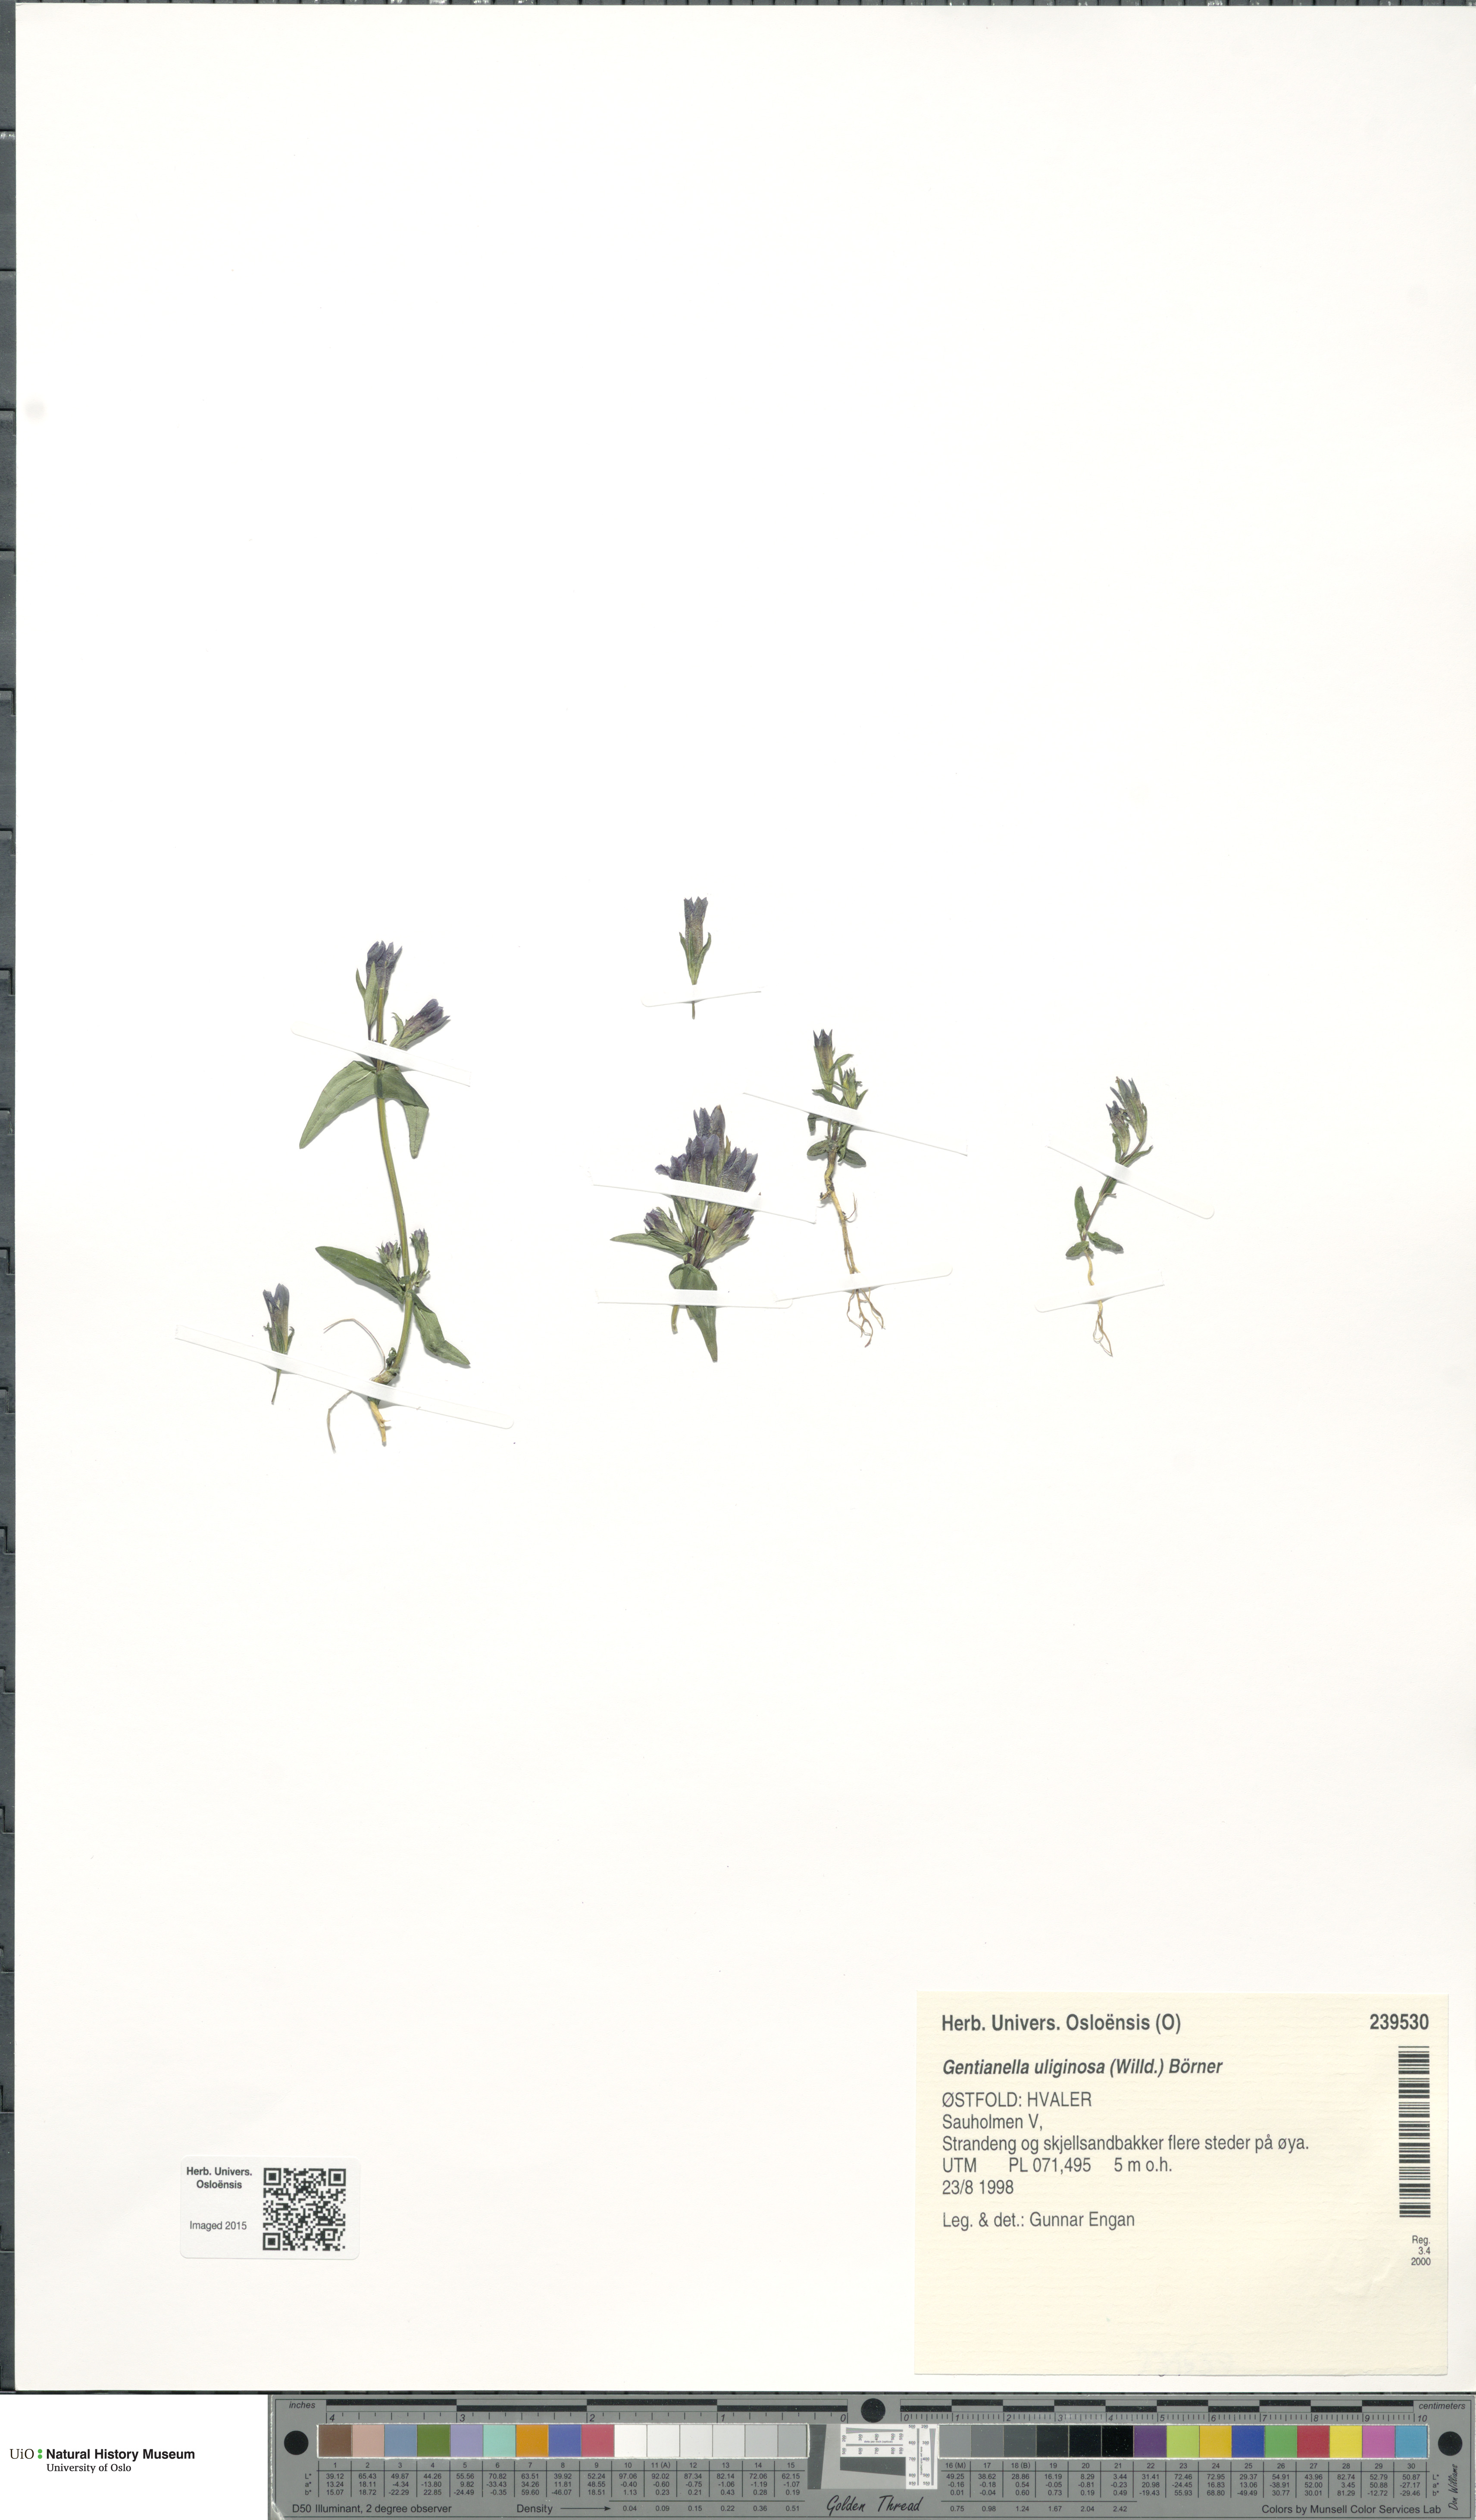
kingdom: Plantae
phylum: Tracheophyta
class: Magnoliopsida
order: Gentianales
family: Gentianaceae
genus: Gentianella
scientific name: Gentianella uliginosa
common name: Dune gentian
